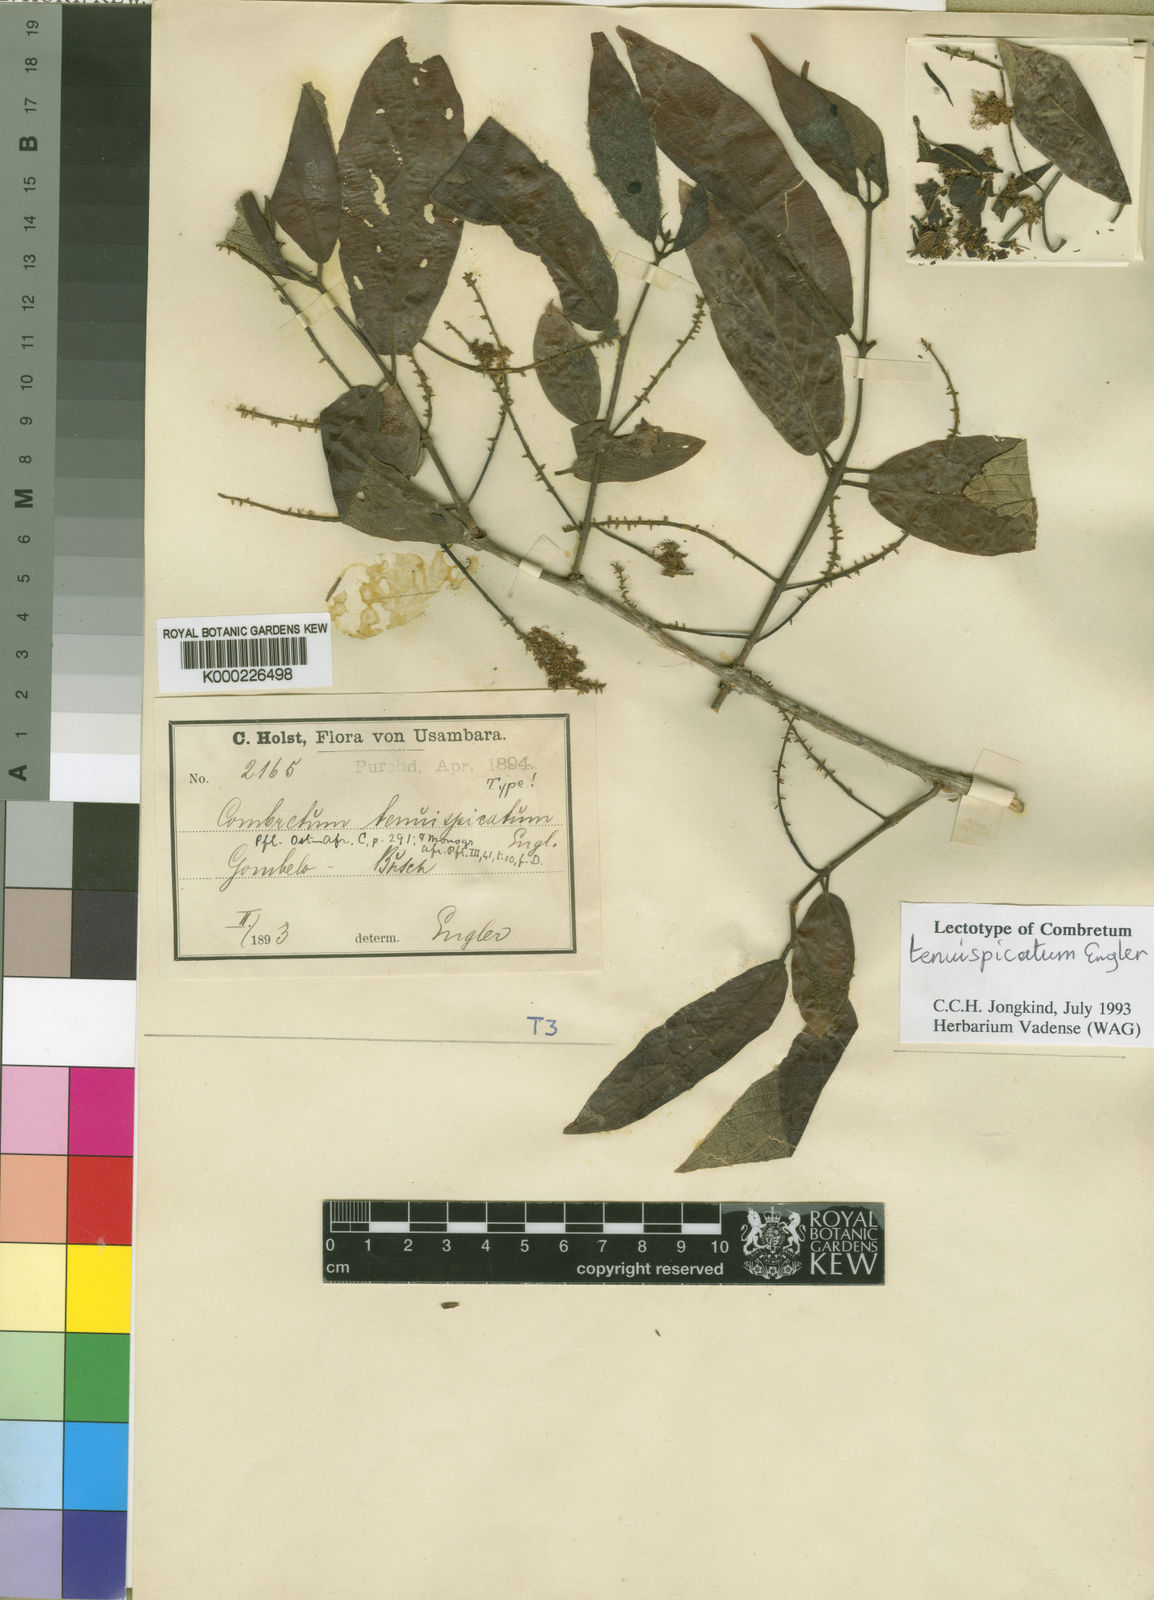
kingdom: Plantae
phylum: Tracheophyta
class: Magnoliopsida
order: Myrtales
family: Combretaceae
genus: Combretum
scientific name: Combretum molle
